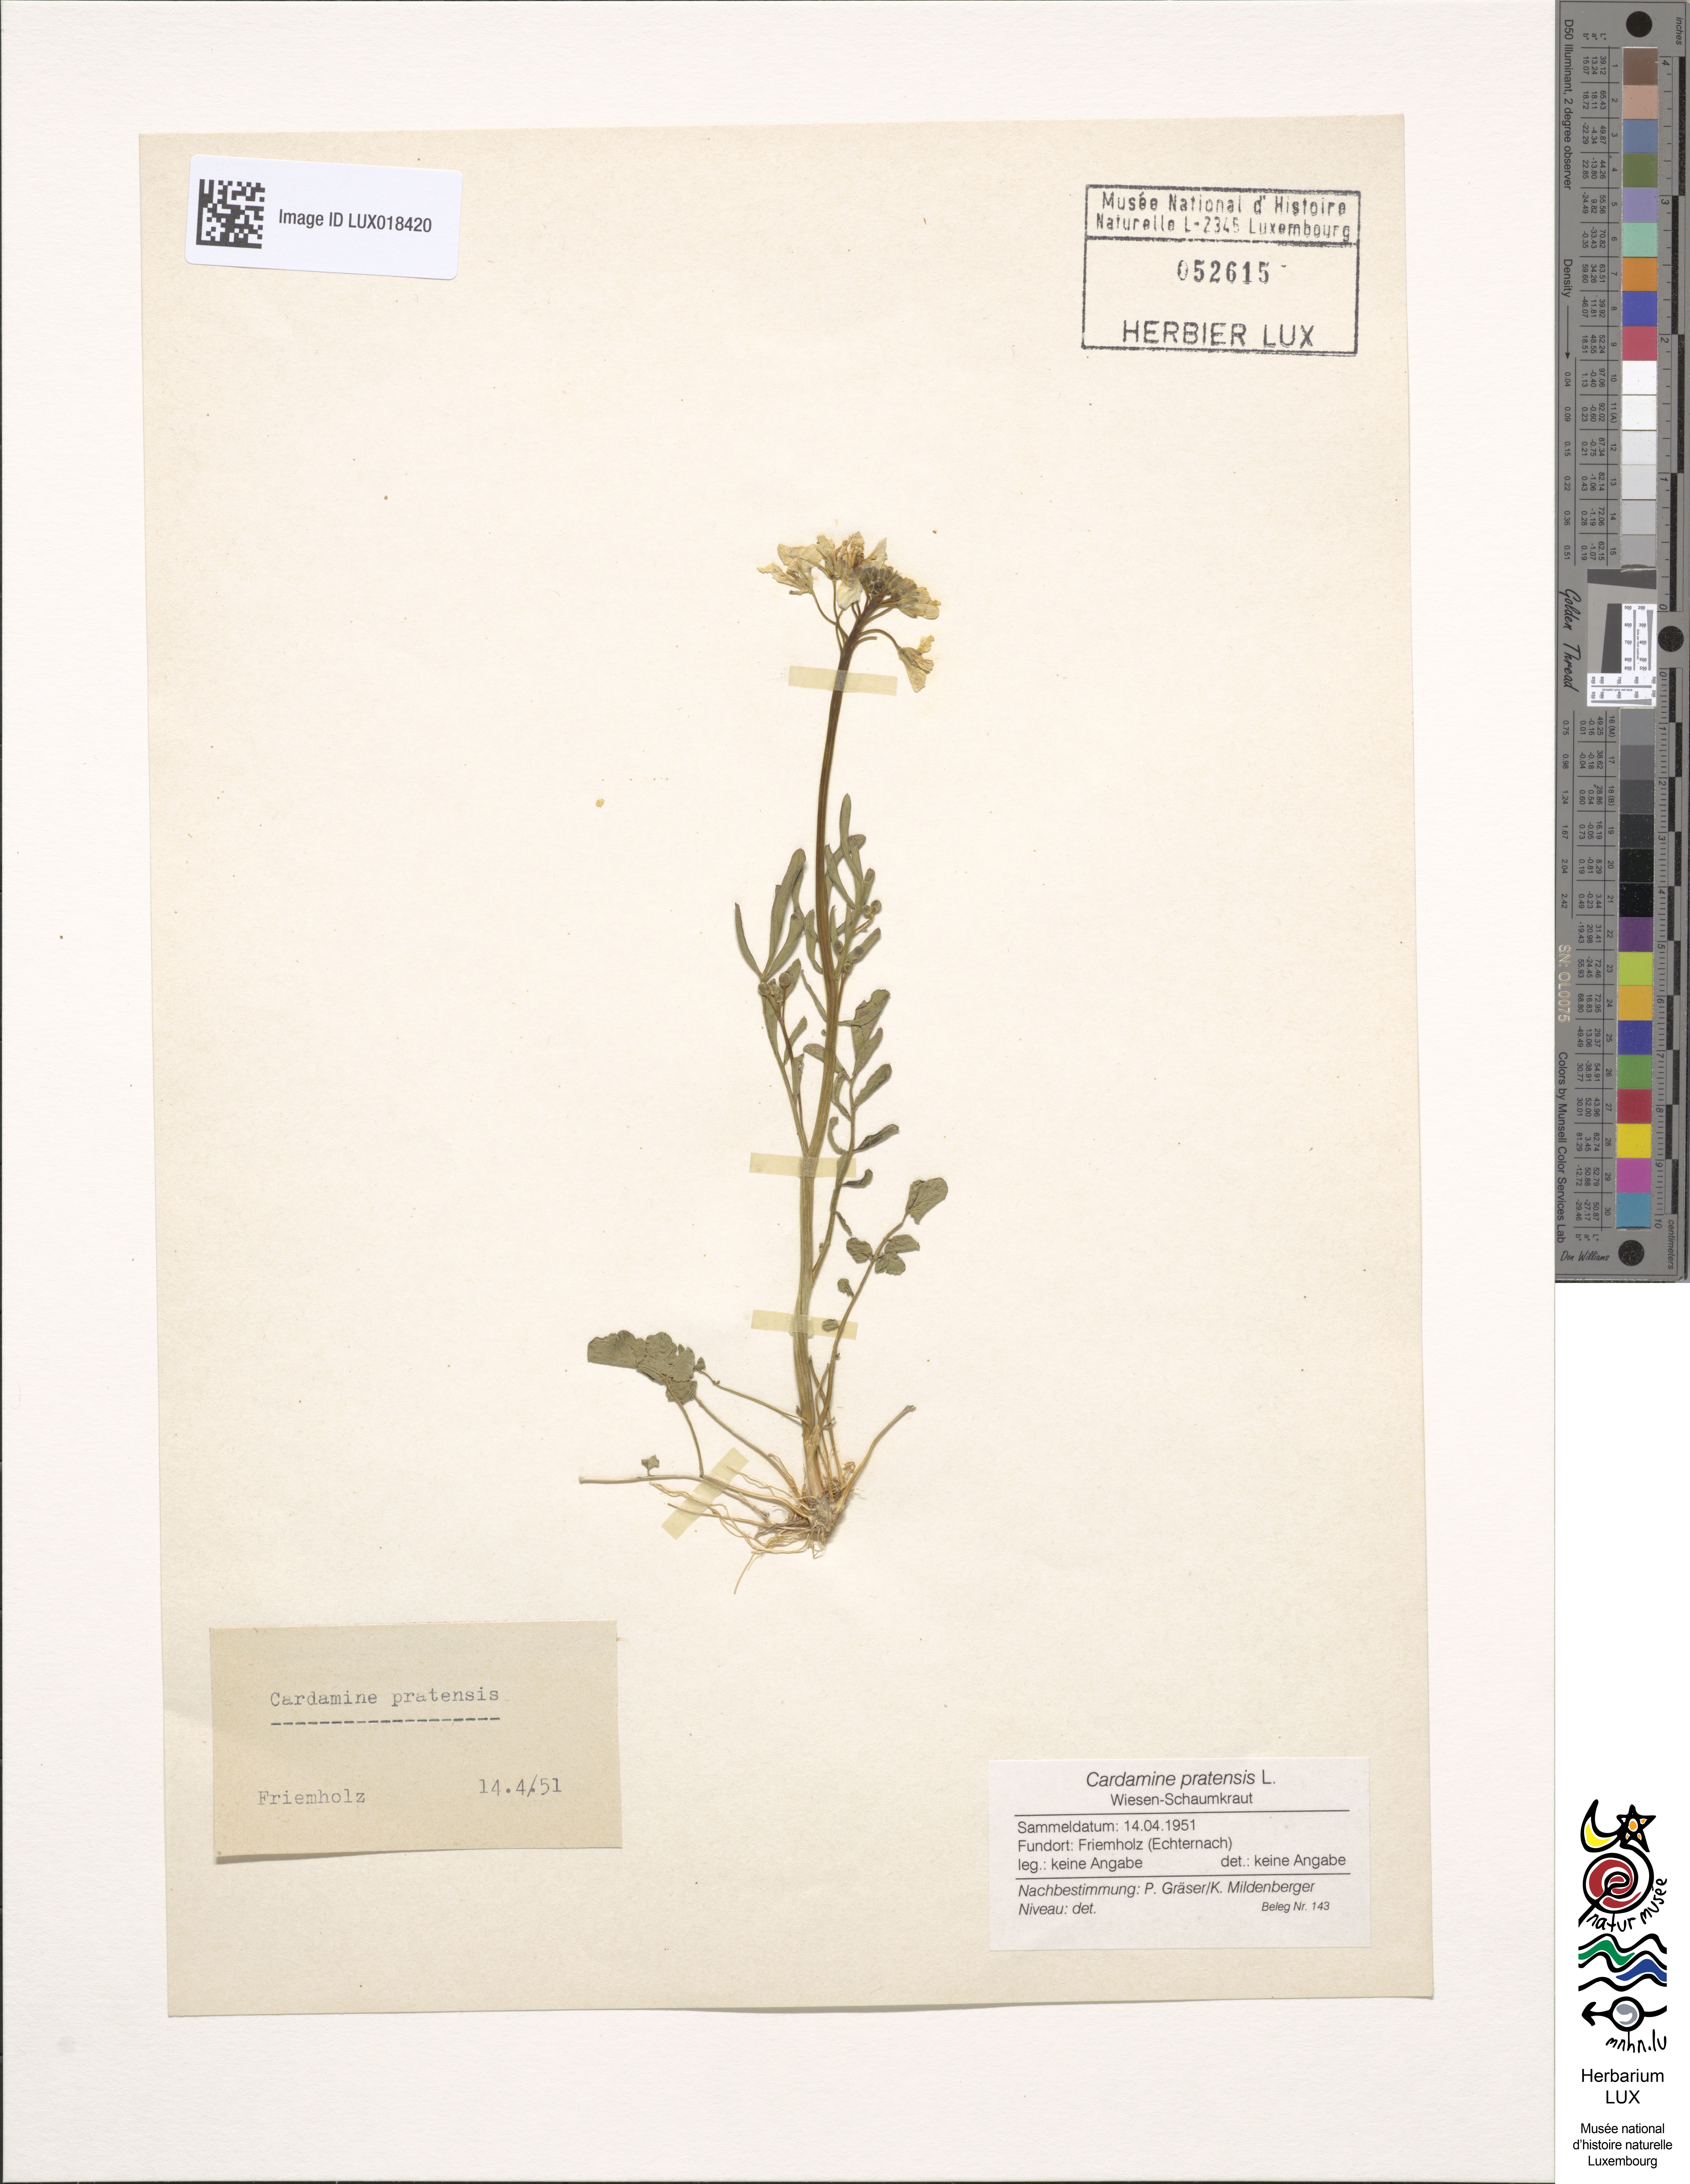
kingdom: Plantae
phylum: Tracheophyta
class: Magnoliopsida
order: Brassicales
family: Brassicaceae
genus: Cardamine
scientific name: Cardamine pratensis
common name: Cuckoo flower
